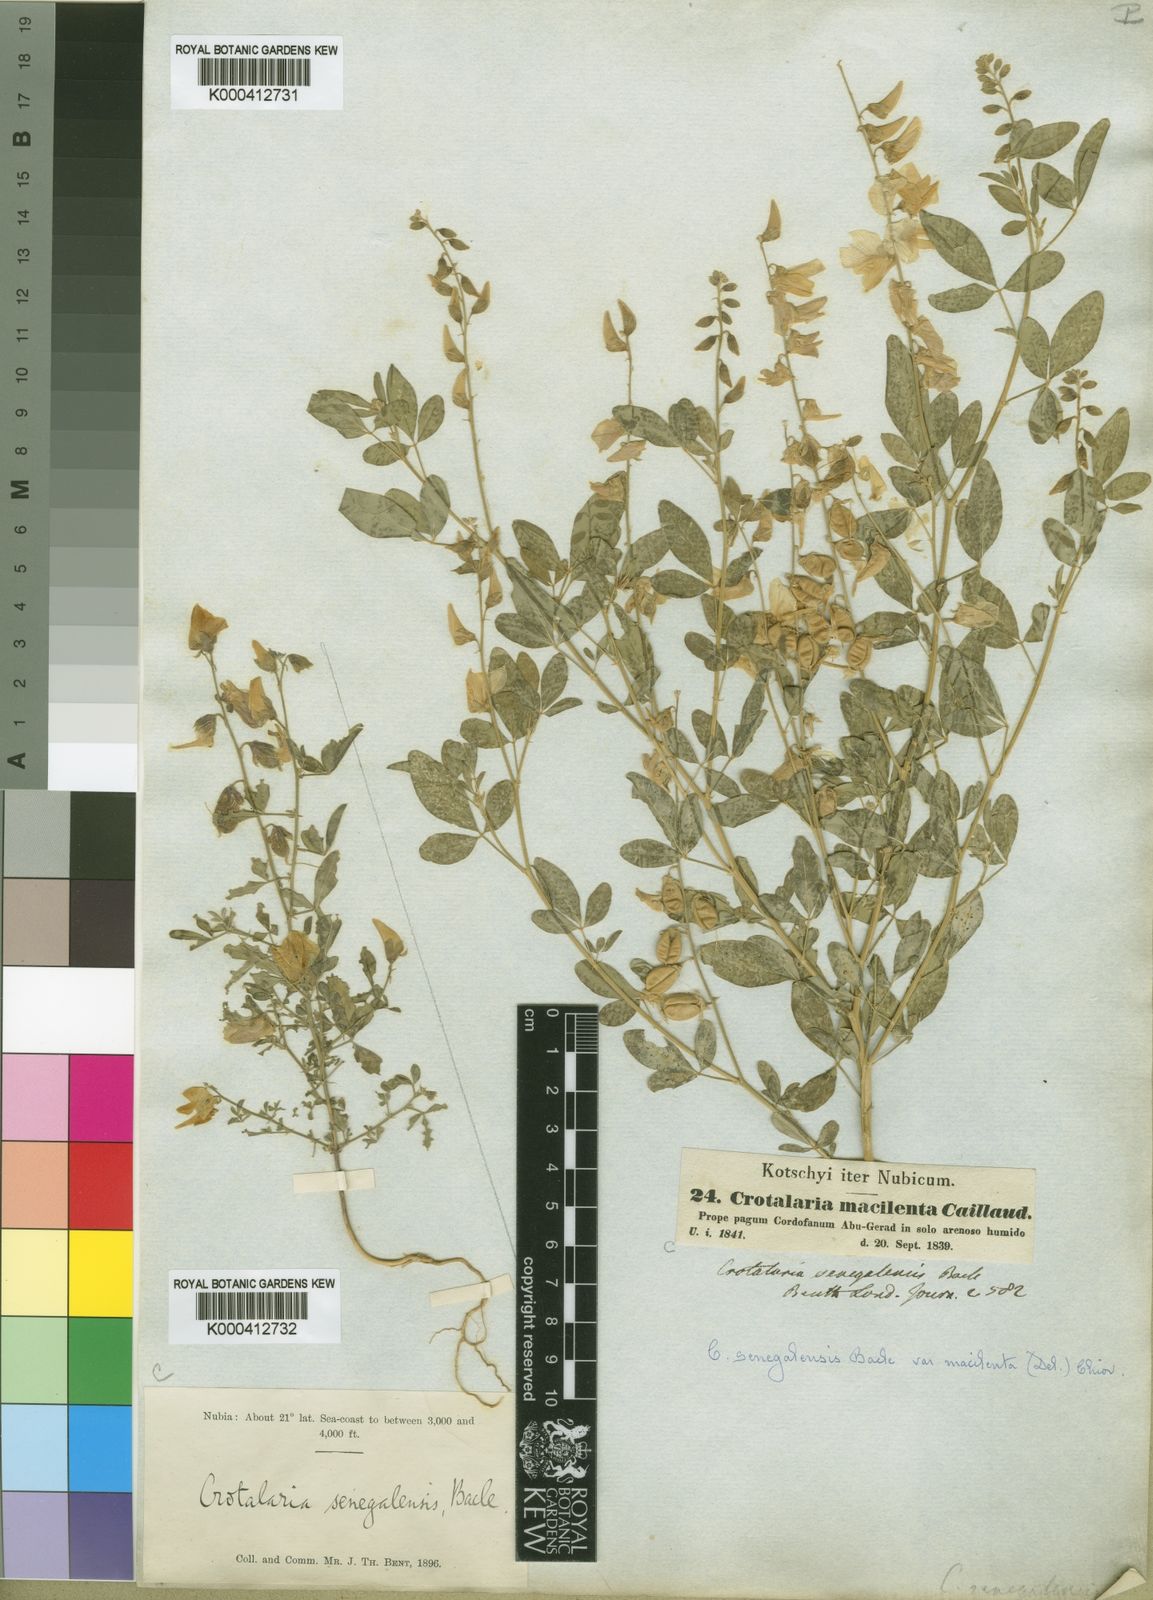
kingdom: Plantae
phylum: Tracheophyta
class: Magnoliopsida
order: Fabales
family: Fabaceae
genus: Crotalaria
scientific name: Crotalaria senegalensis
